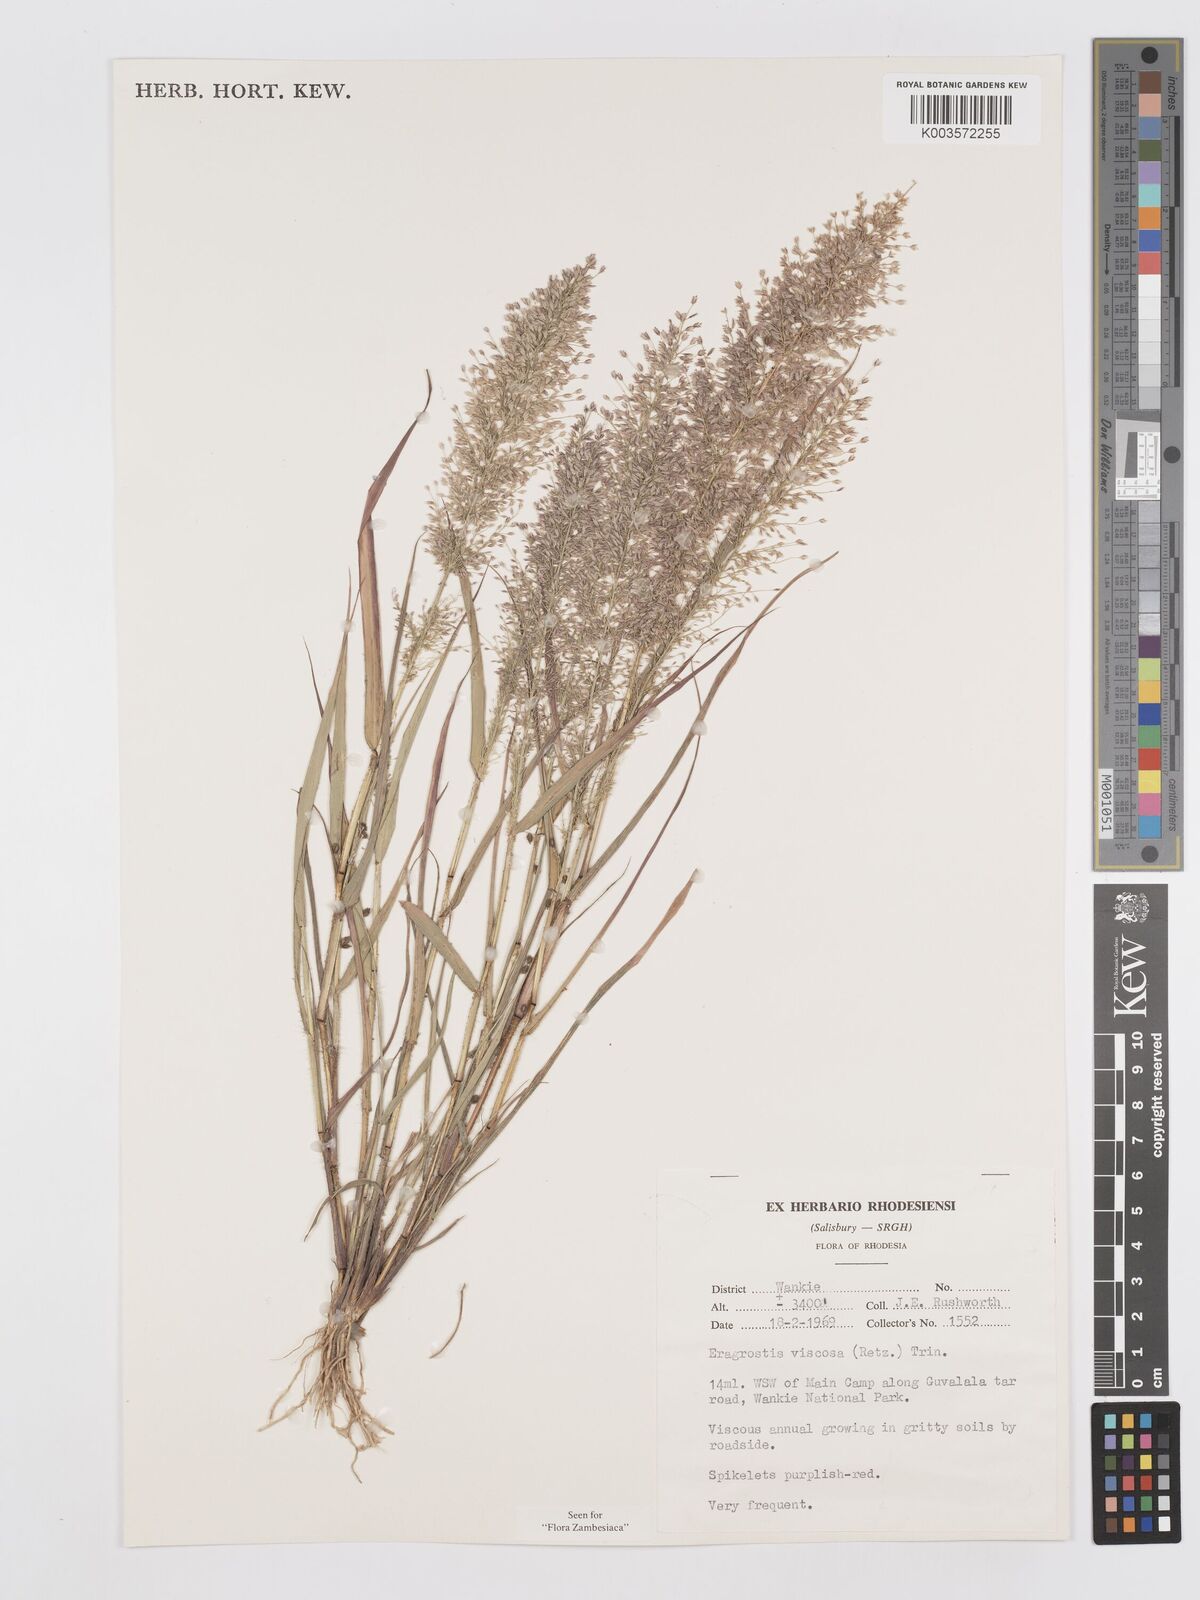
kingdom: Plantae
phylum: Tracheophyta
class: Liliopsida
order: Poales
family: Poaceae
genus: Eragrostis
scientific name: Eragrostis
